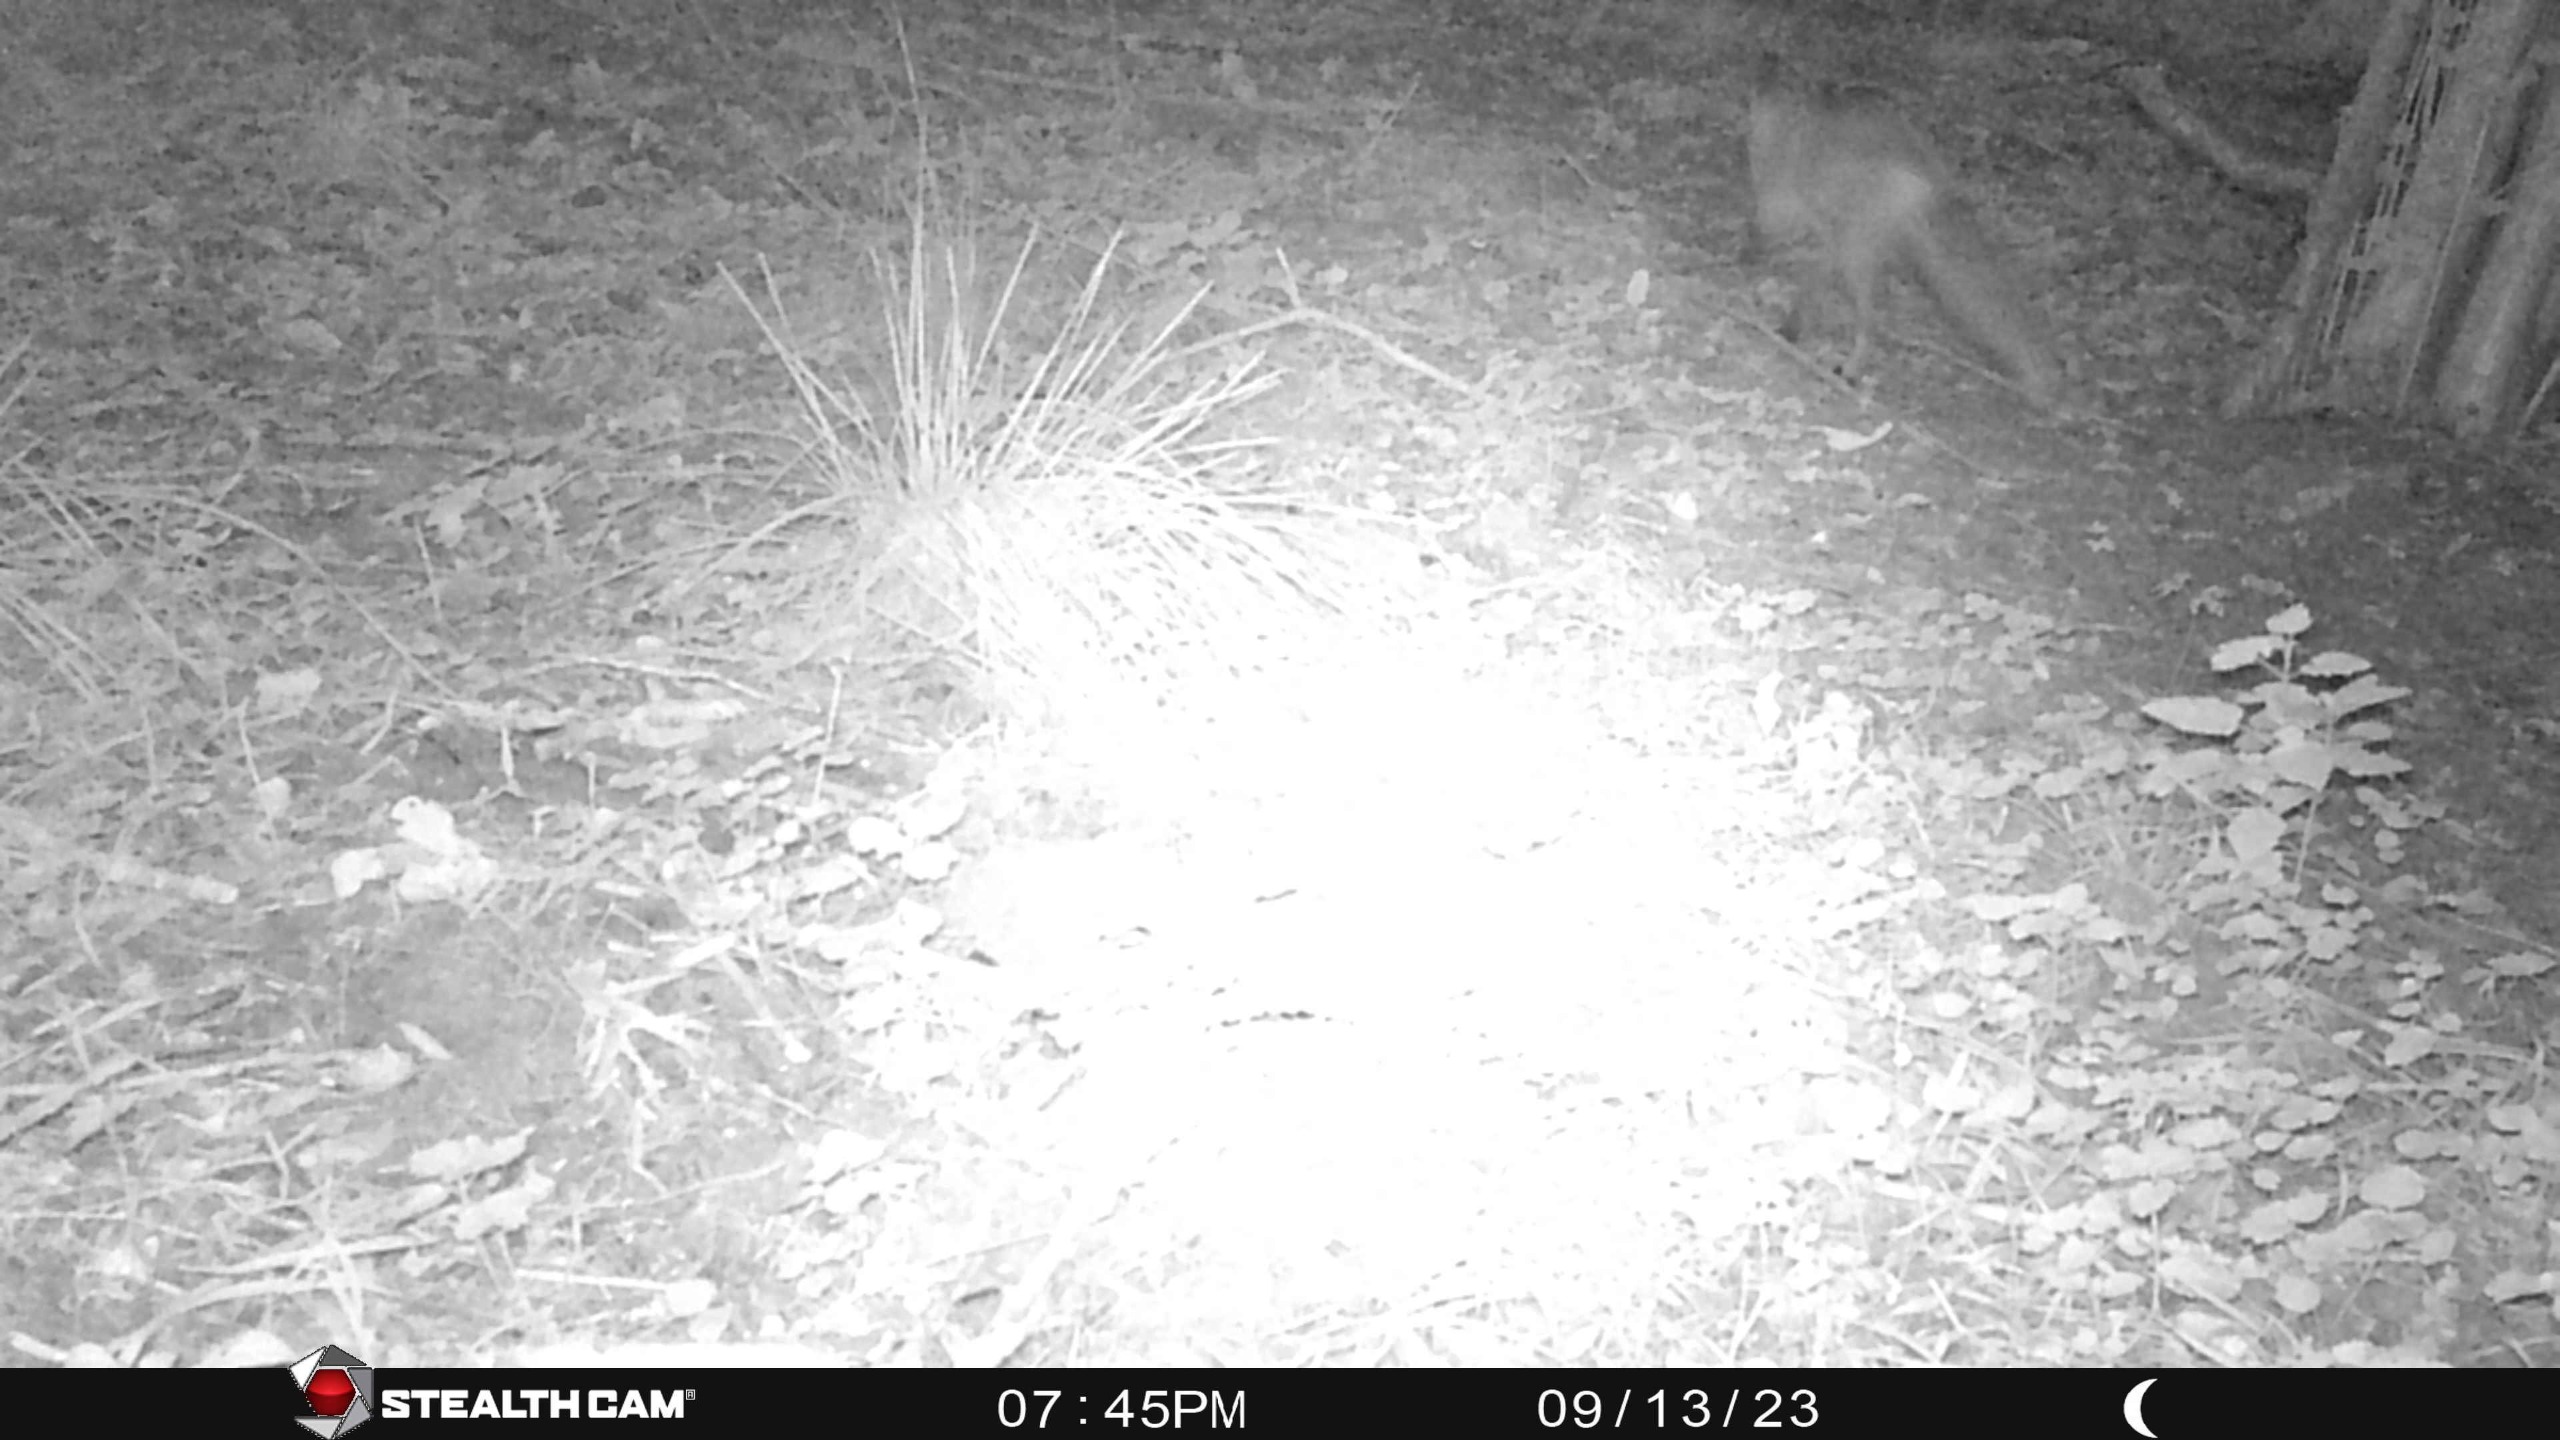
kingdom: Animalia
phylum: Chordata
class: Mammalia
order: Carnivora
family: Canidae
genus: Vulpes
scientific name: Vulpes vulpes
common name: Ræv
